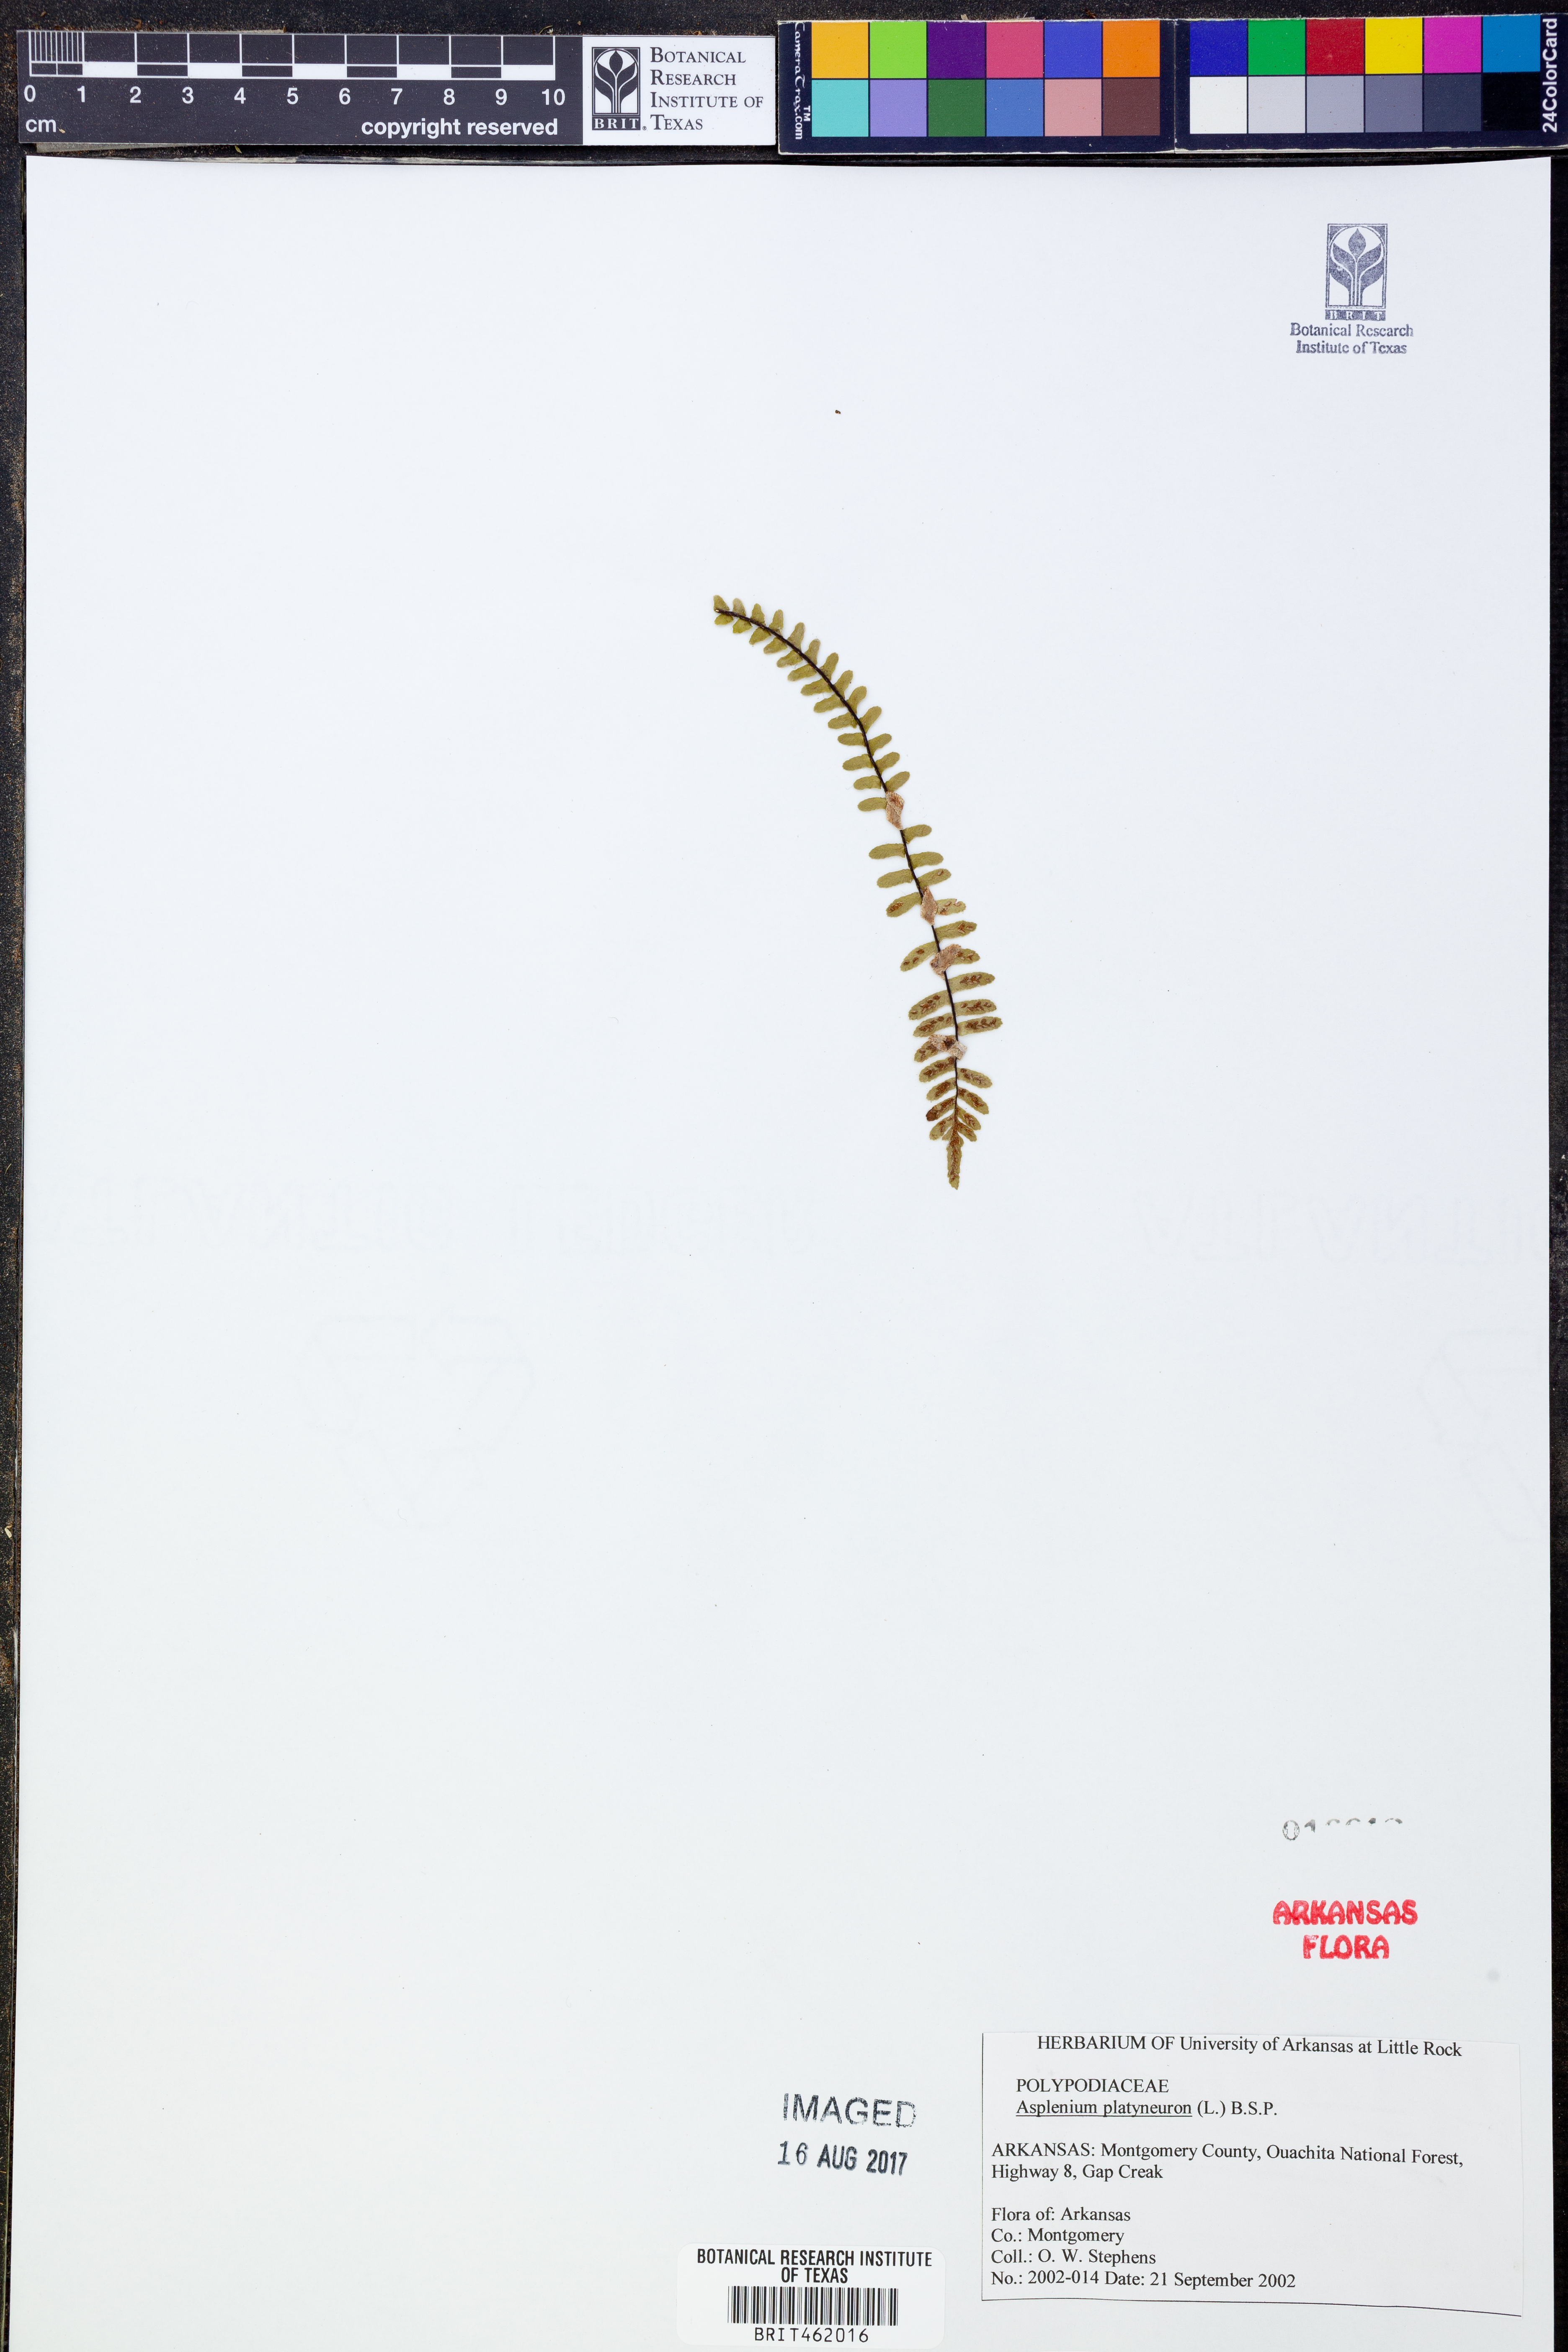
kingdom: Plantae
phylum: Tracheophyta
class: Polypodiopsida
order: Polypodiales
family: Aspleniaceae
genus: Asplenium
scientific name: Asplenium platyneuron
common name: Ebony spleenwort
